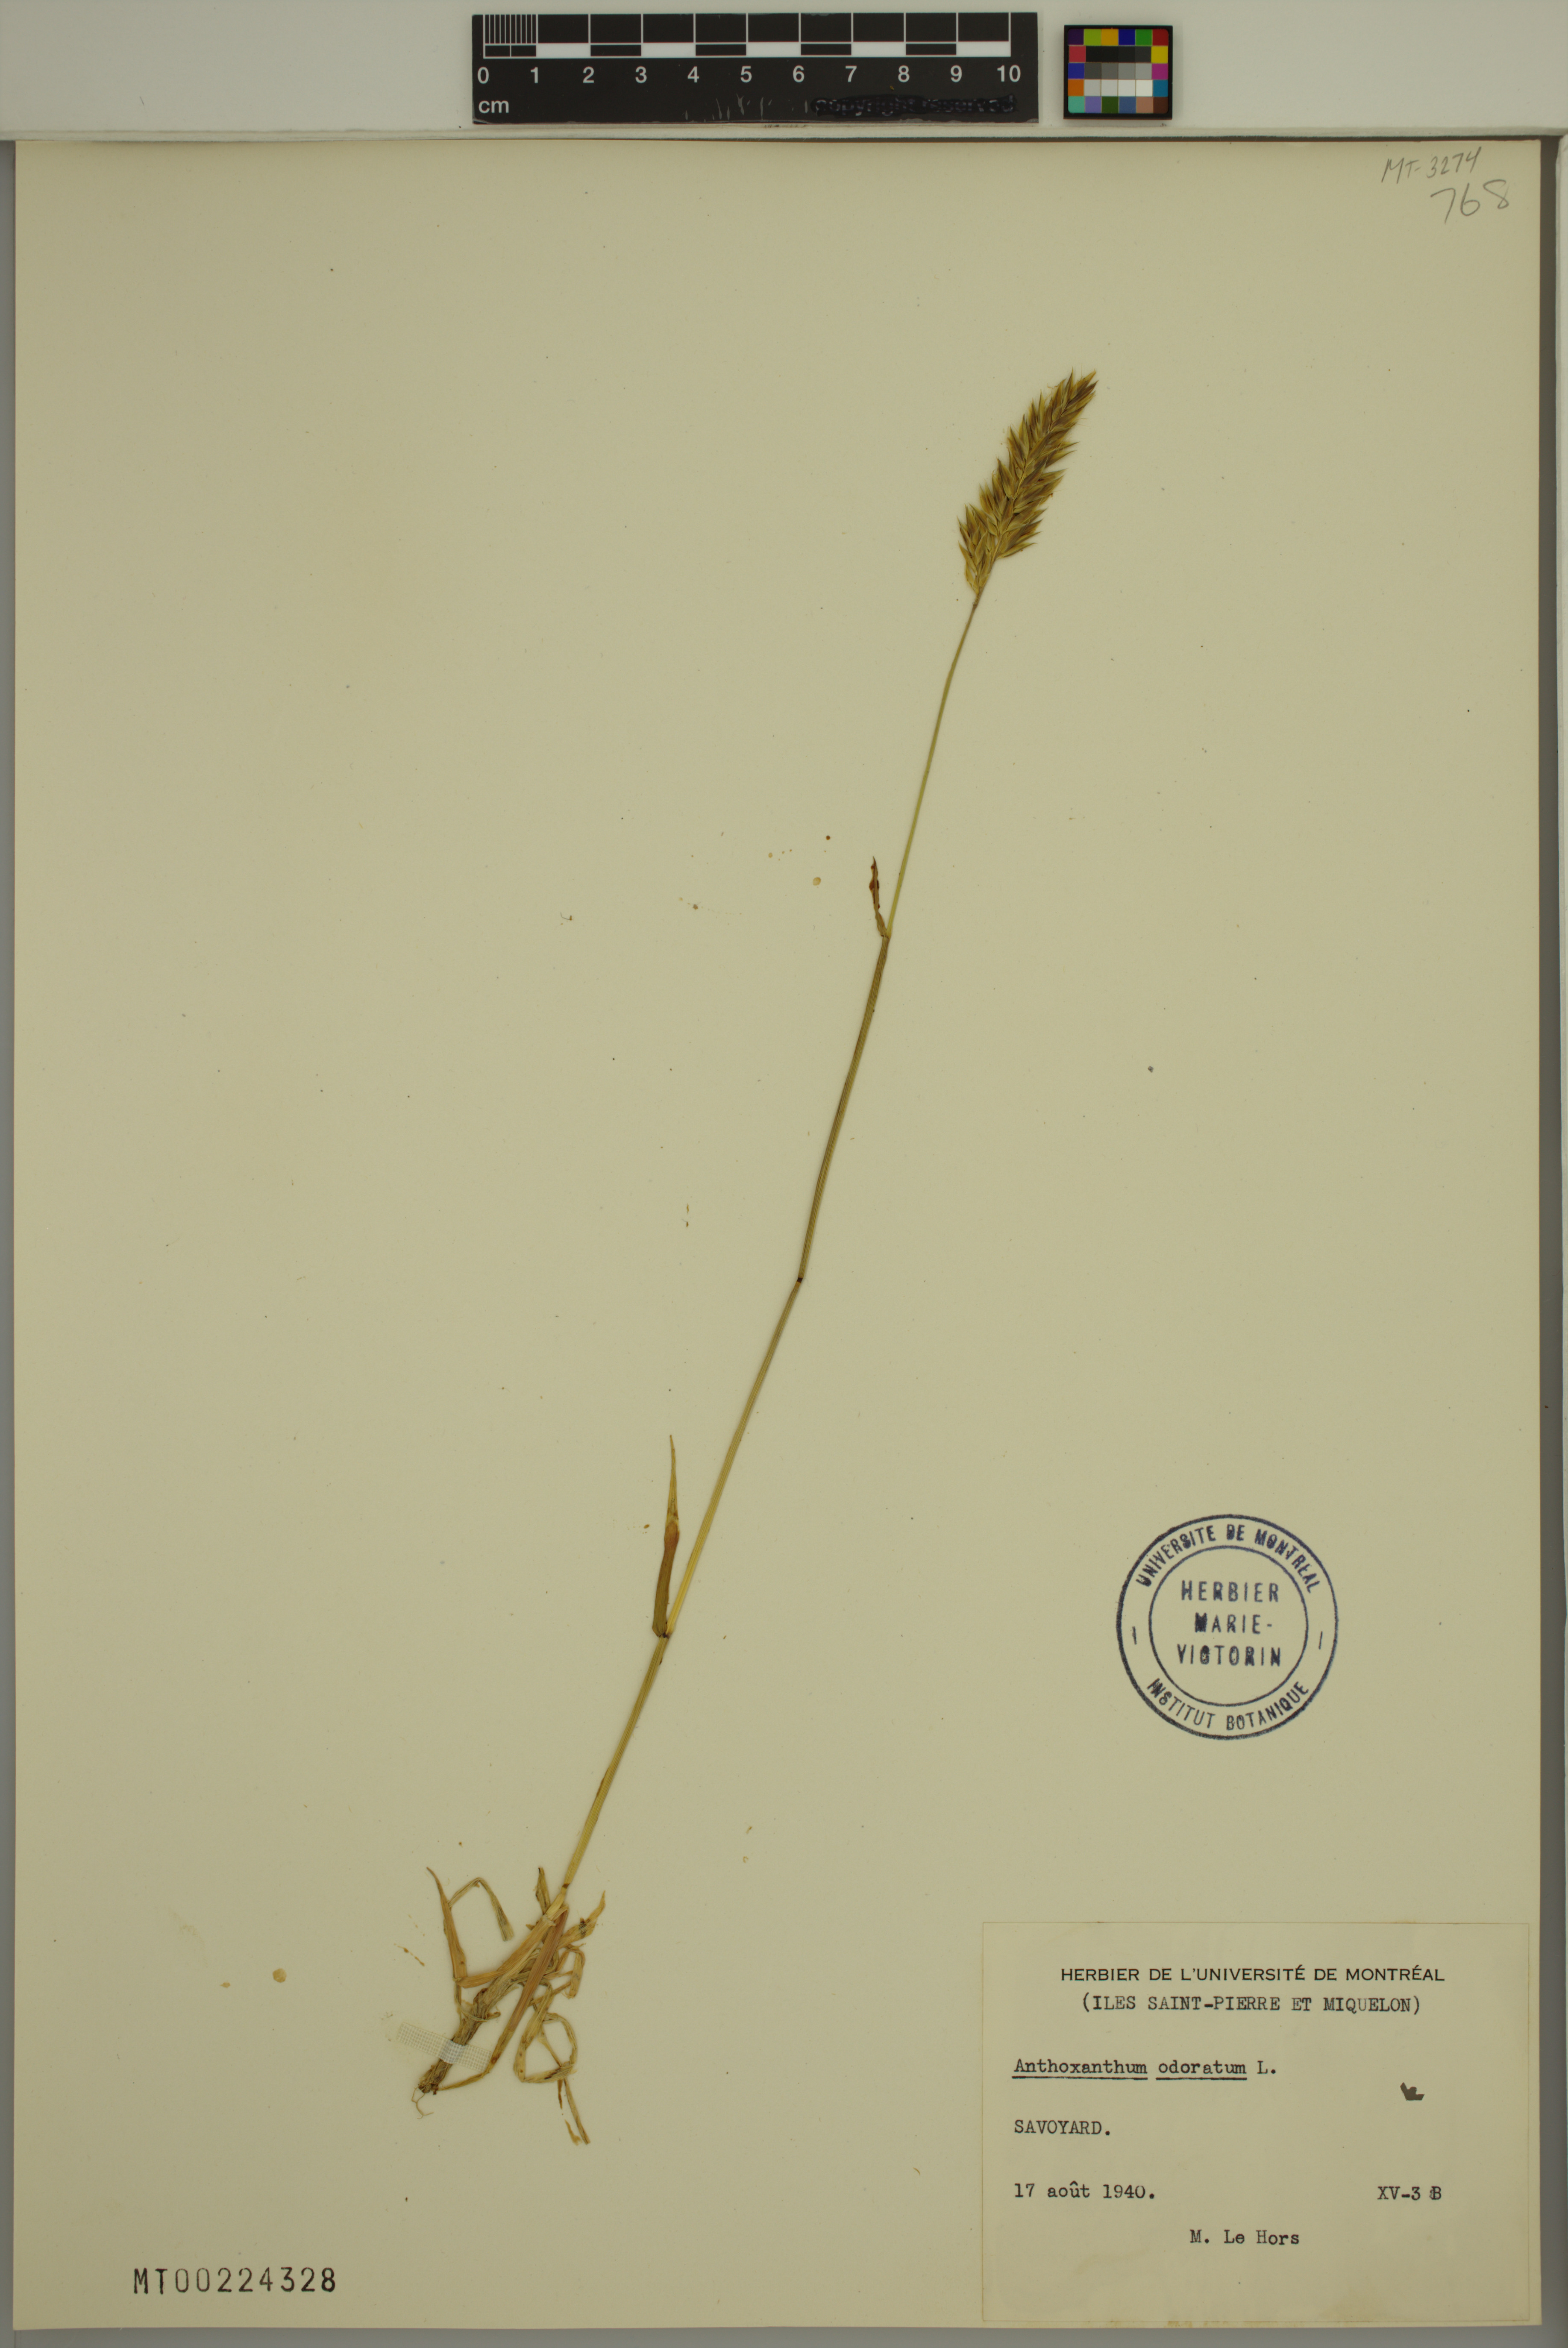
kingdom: Plantae
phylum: Tracheophyta
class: Liliopsida
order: Poales
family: Poaceae
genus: Anthoxanthum
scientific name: Anthoxanthum odoratum
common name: Sweet vernalgrass
